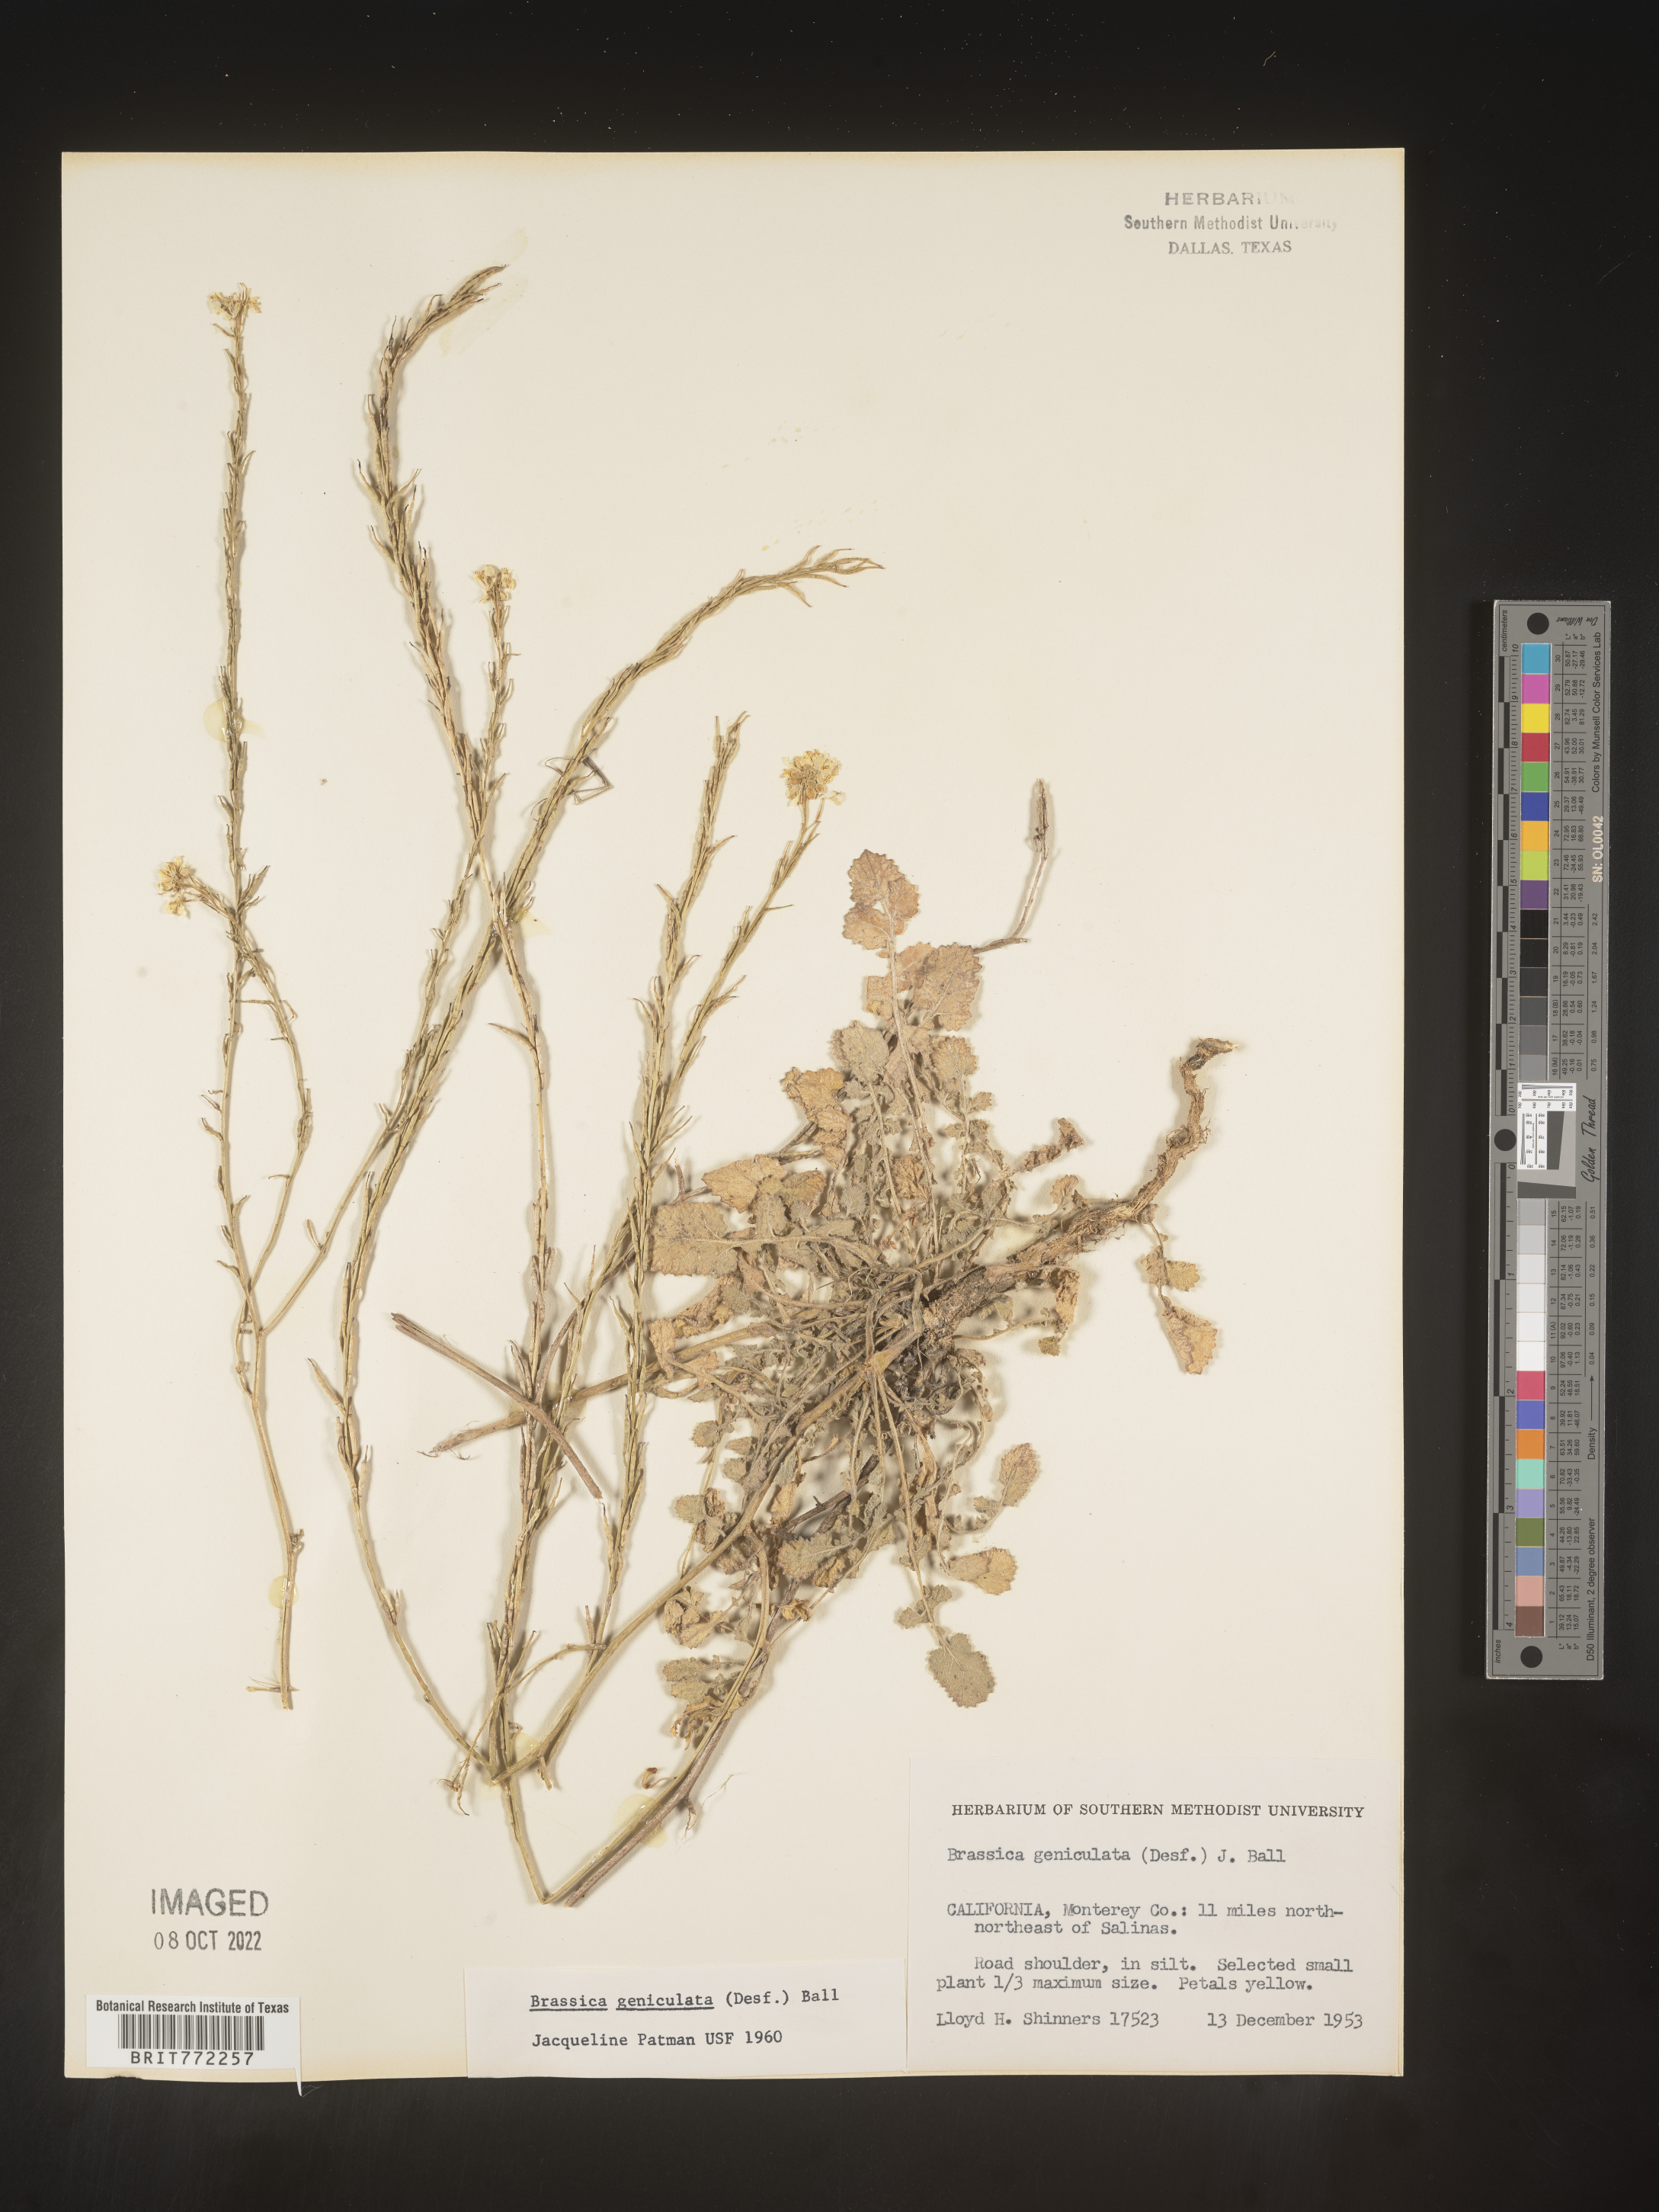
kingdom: Plantae
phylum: Tracheophyta
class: Magnoliopsida
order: Brassicales
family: Brassicaceae
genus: Hirschfeldia
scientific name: Hirschfeldia incana
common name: Hoary mustard
